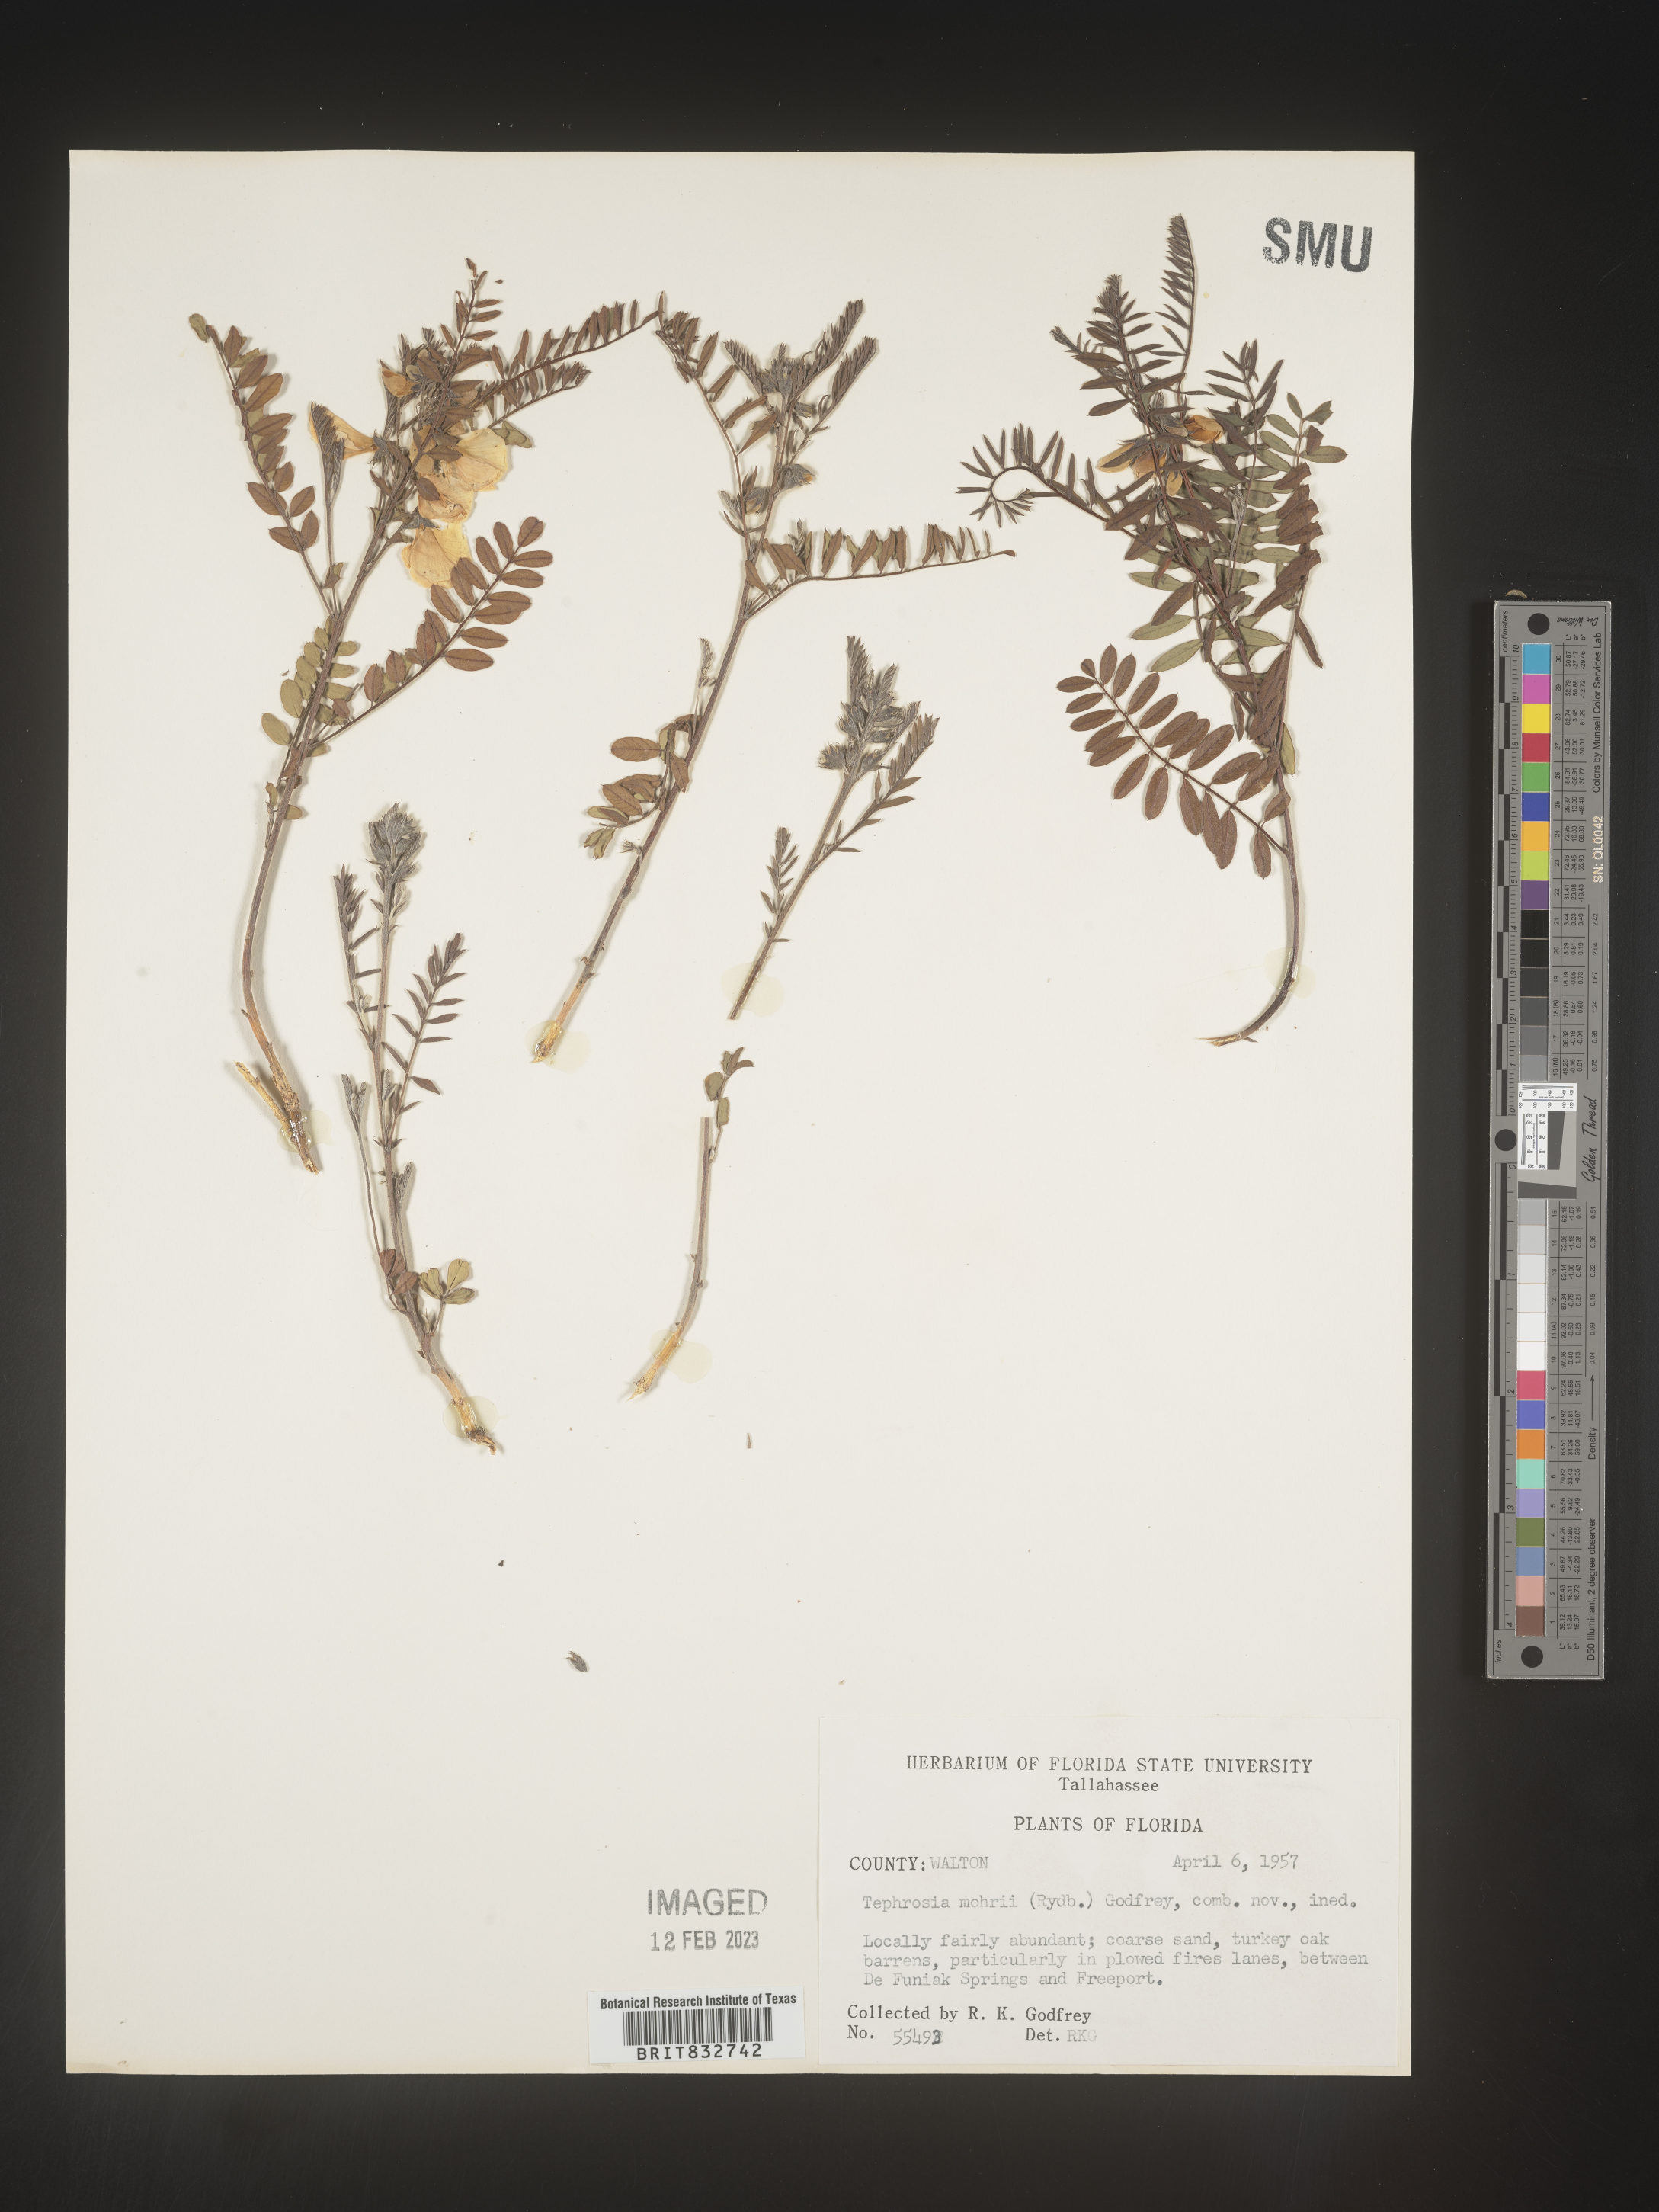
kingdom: Plantae
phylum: Tracheophyta
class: Magnoliopsida
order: Fabales
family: Fabaceae
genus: Tephrosia
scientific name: Tephrosia mohrii
